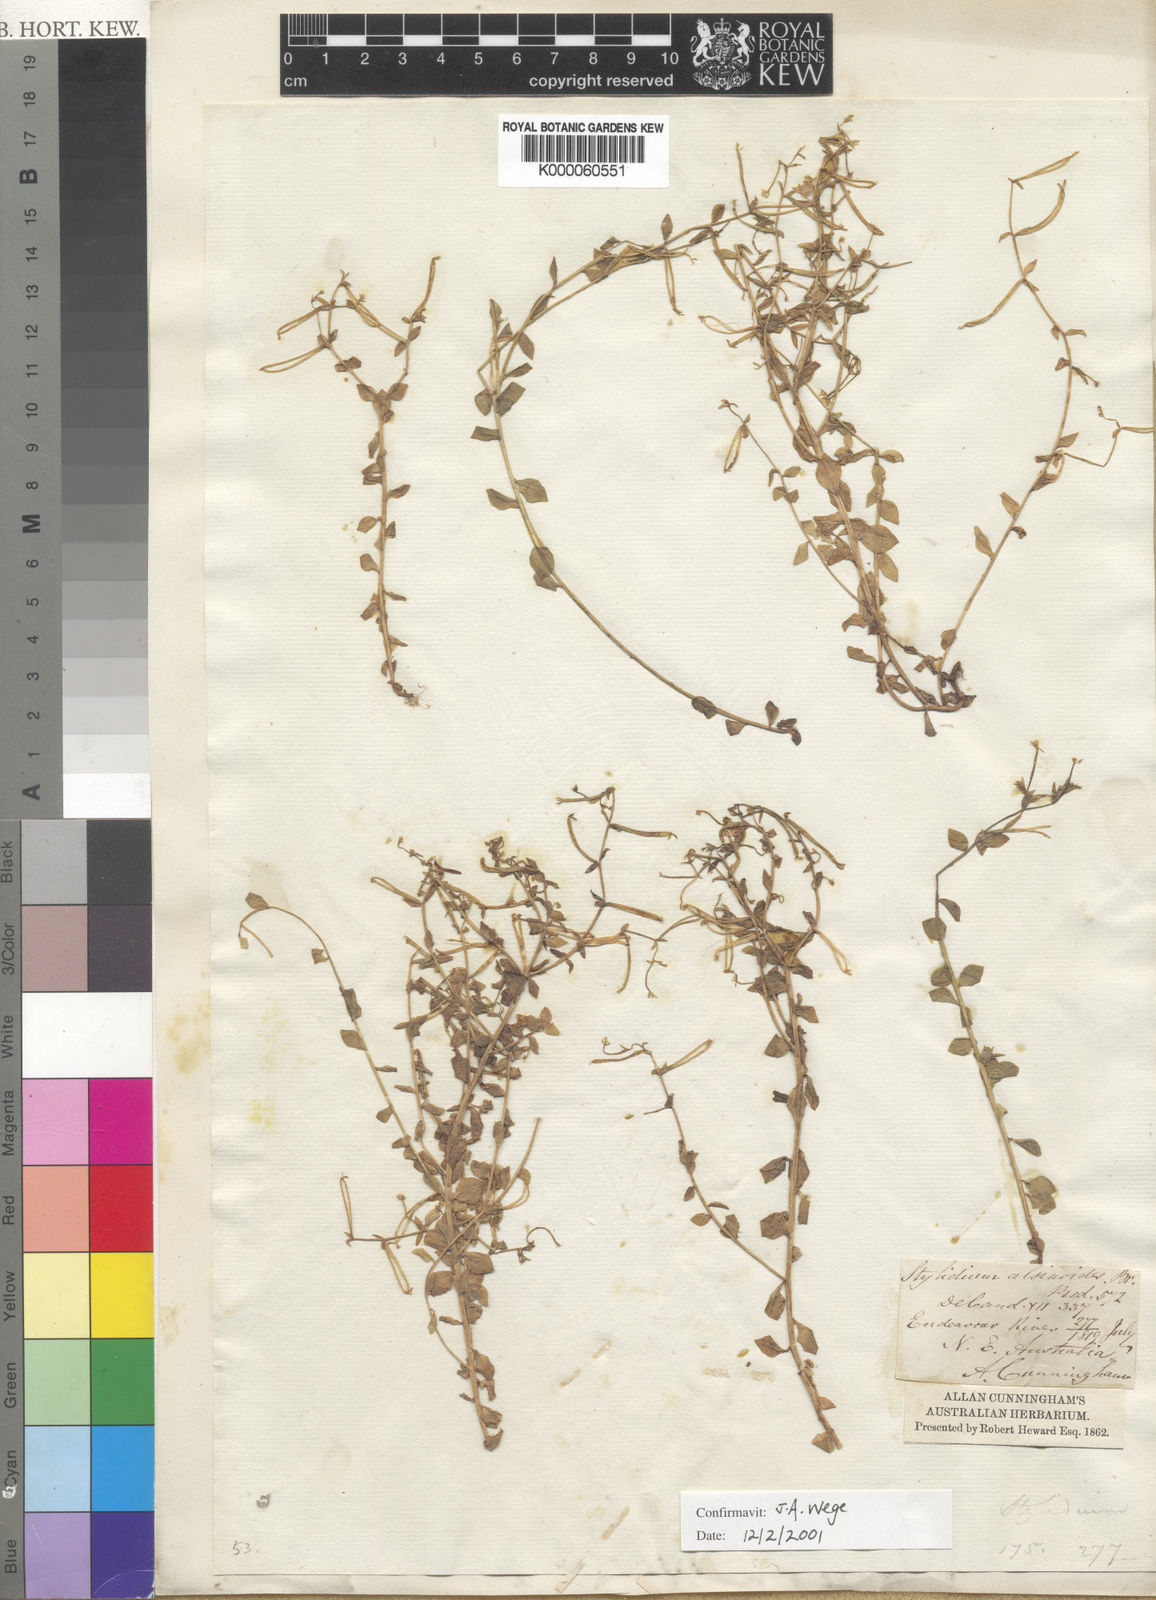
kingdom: Plantae
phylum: Tracheophyta
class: Magnoliopsida
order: Asterales
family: Stylidiaceae
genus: Stylidium
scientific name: Stylidium alsinoides
